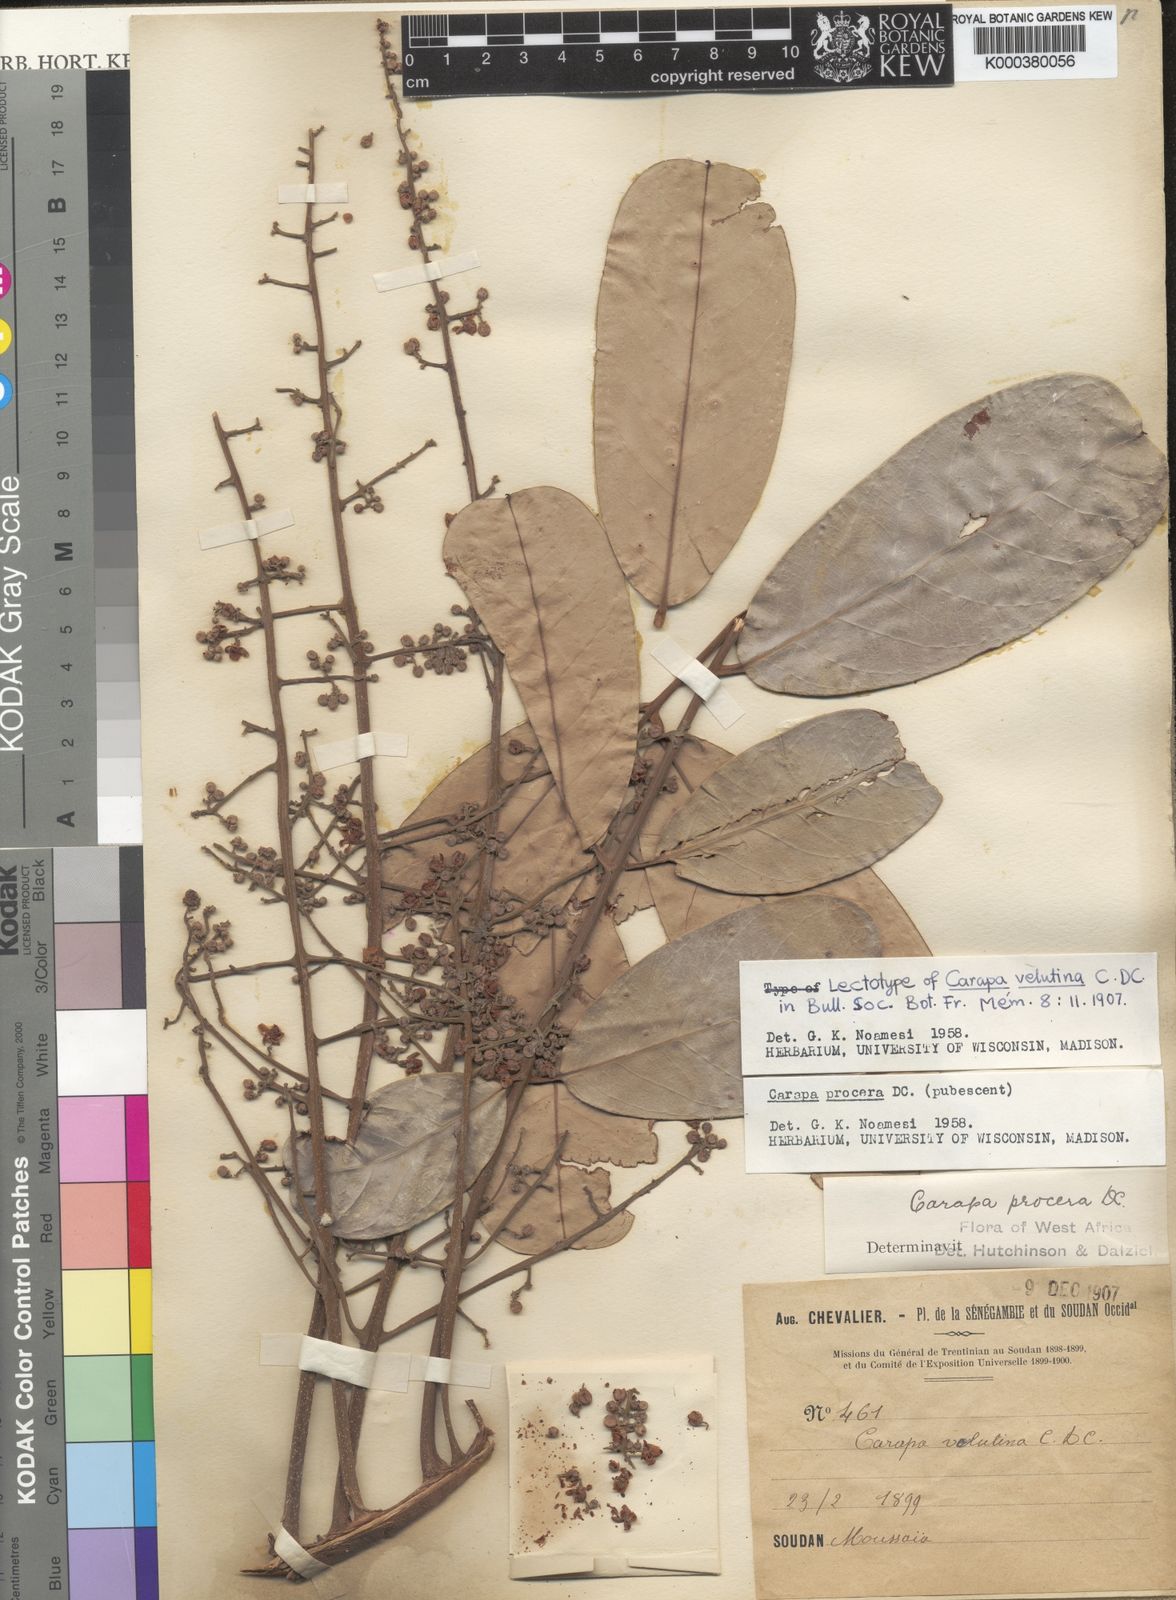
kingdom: Plantae
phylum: Tracheophyta
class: Magnoliopsida
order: Sapindales
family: Meliaceae
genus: Carapa
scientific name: Carapa procera
